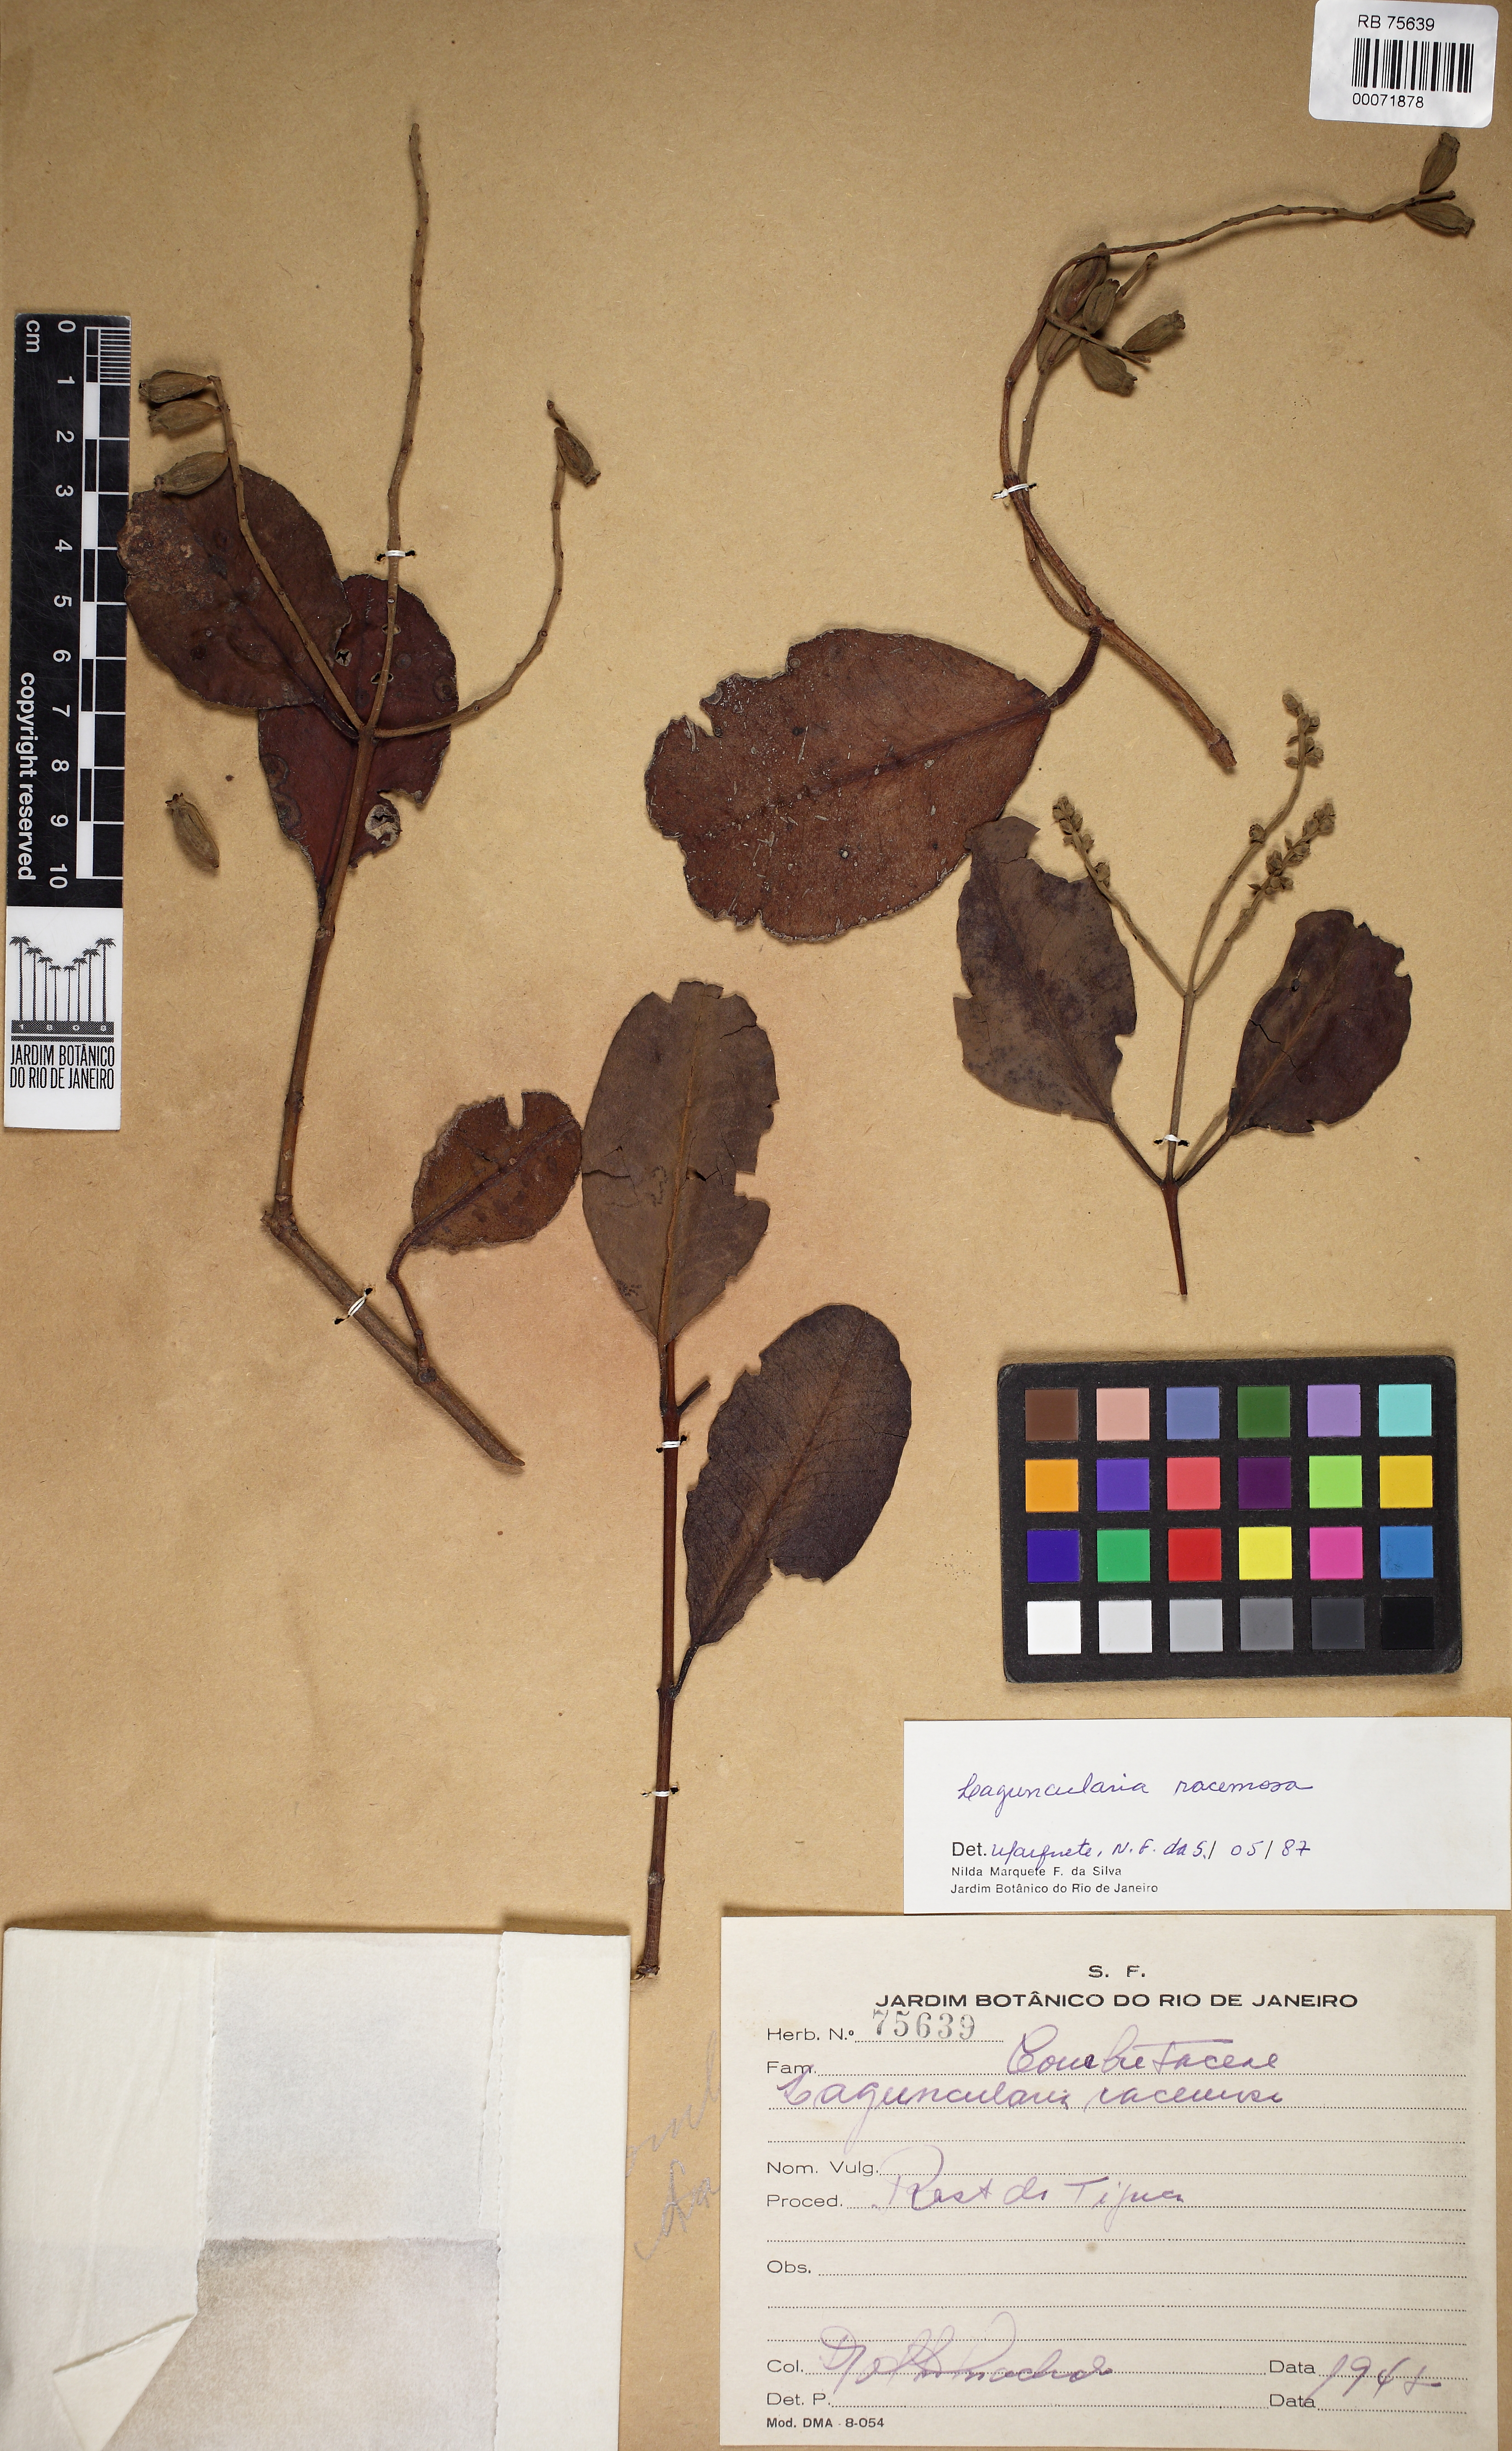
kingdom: Plantae
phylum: Tracheophyta
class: Magnoliopsida
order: Myrtales
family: Combretaceae
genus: Laguncularia
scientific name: Laguncularia racemosa
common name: White mangrove
